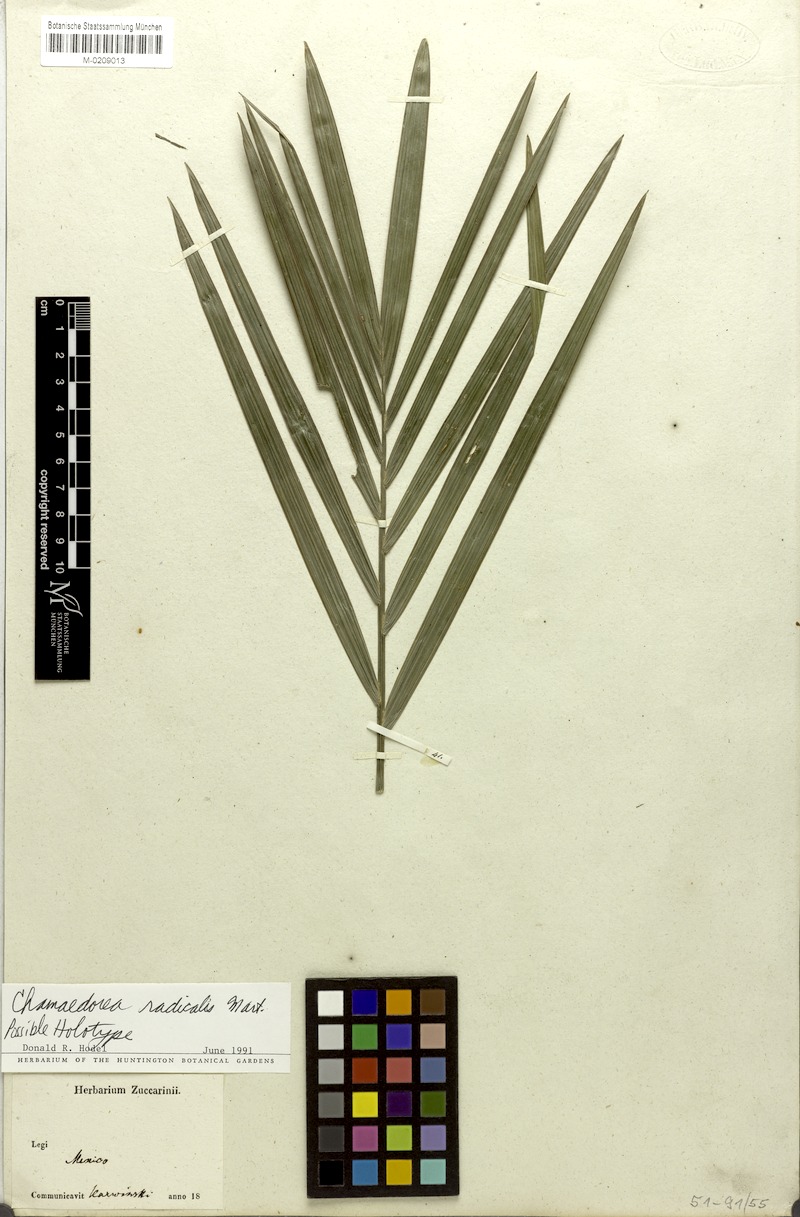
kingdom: Plantae
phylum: Tracheophyta
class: Liliopsida
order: Arecales
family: Arecaceae
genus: Chamaedorea
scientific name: Chamaedorea radicalis
